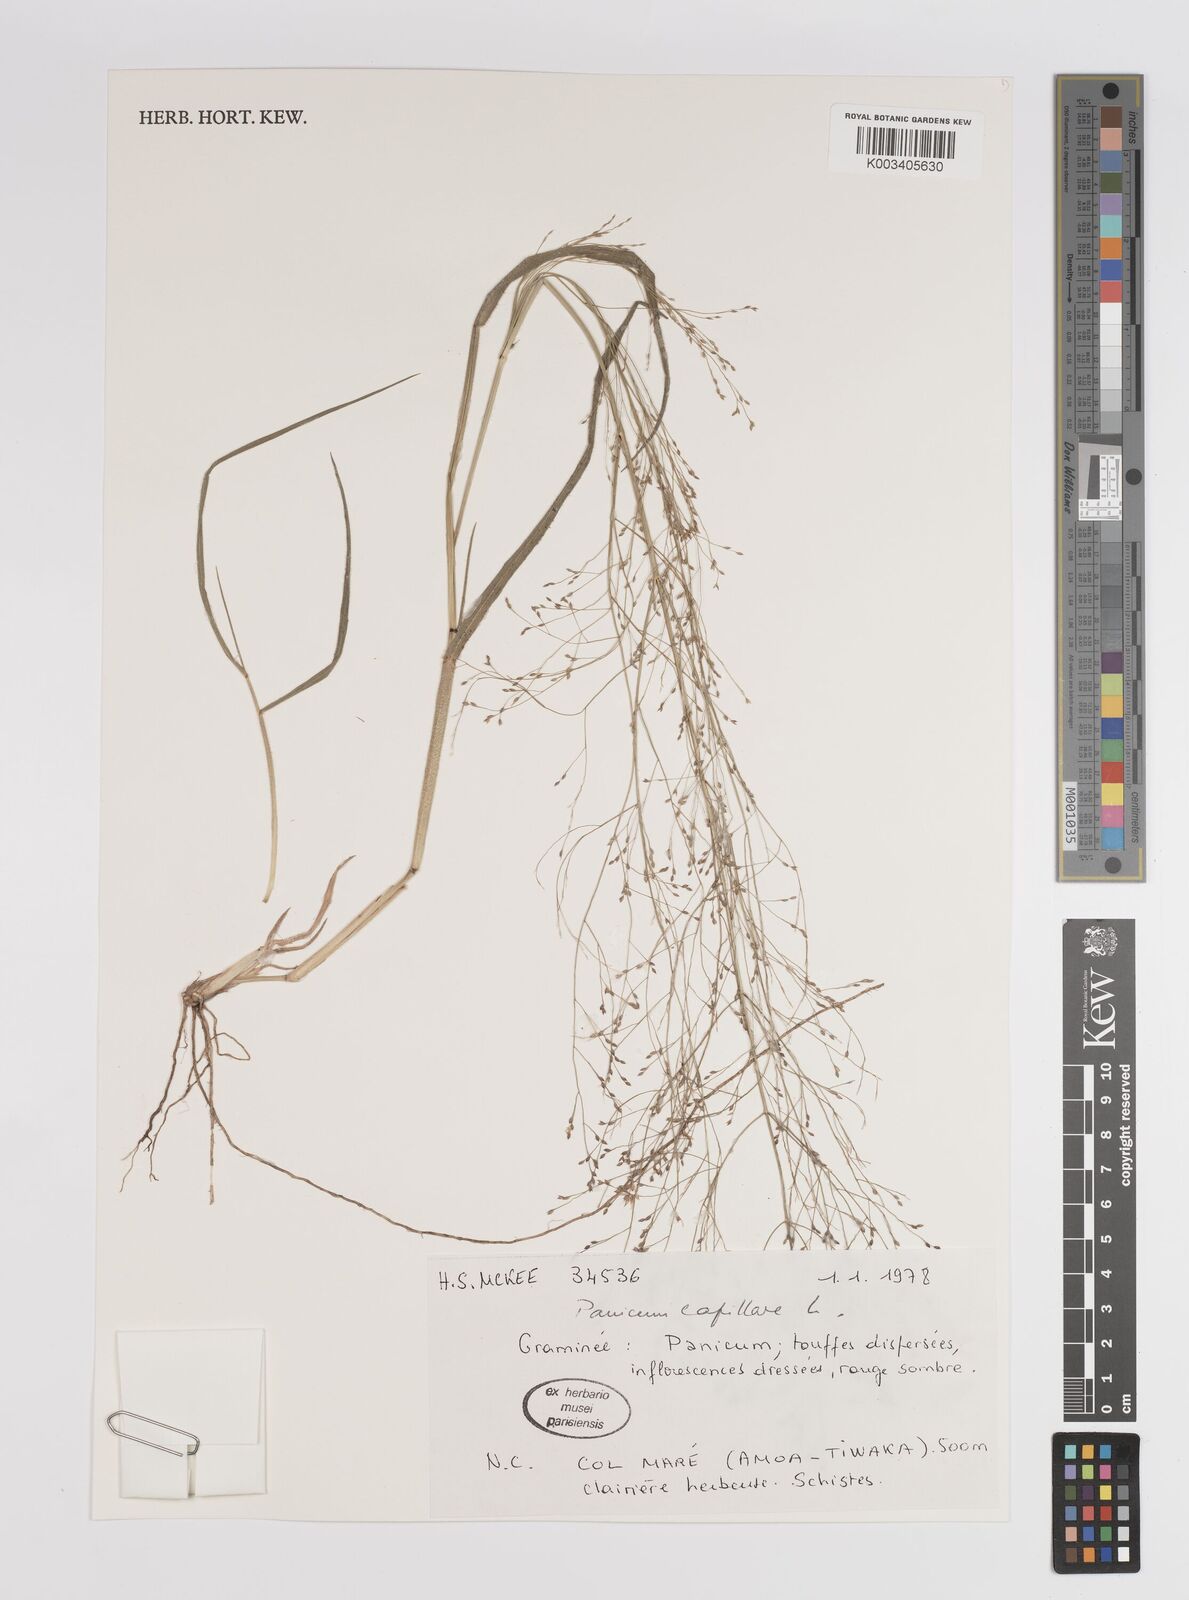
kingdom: Plantae
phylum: Tracheophyta
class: Liliopsida
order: Poales
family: Poaceae
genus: Panicum
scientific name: Panicum capillare
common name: Witch-grass
